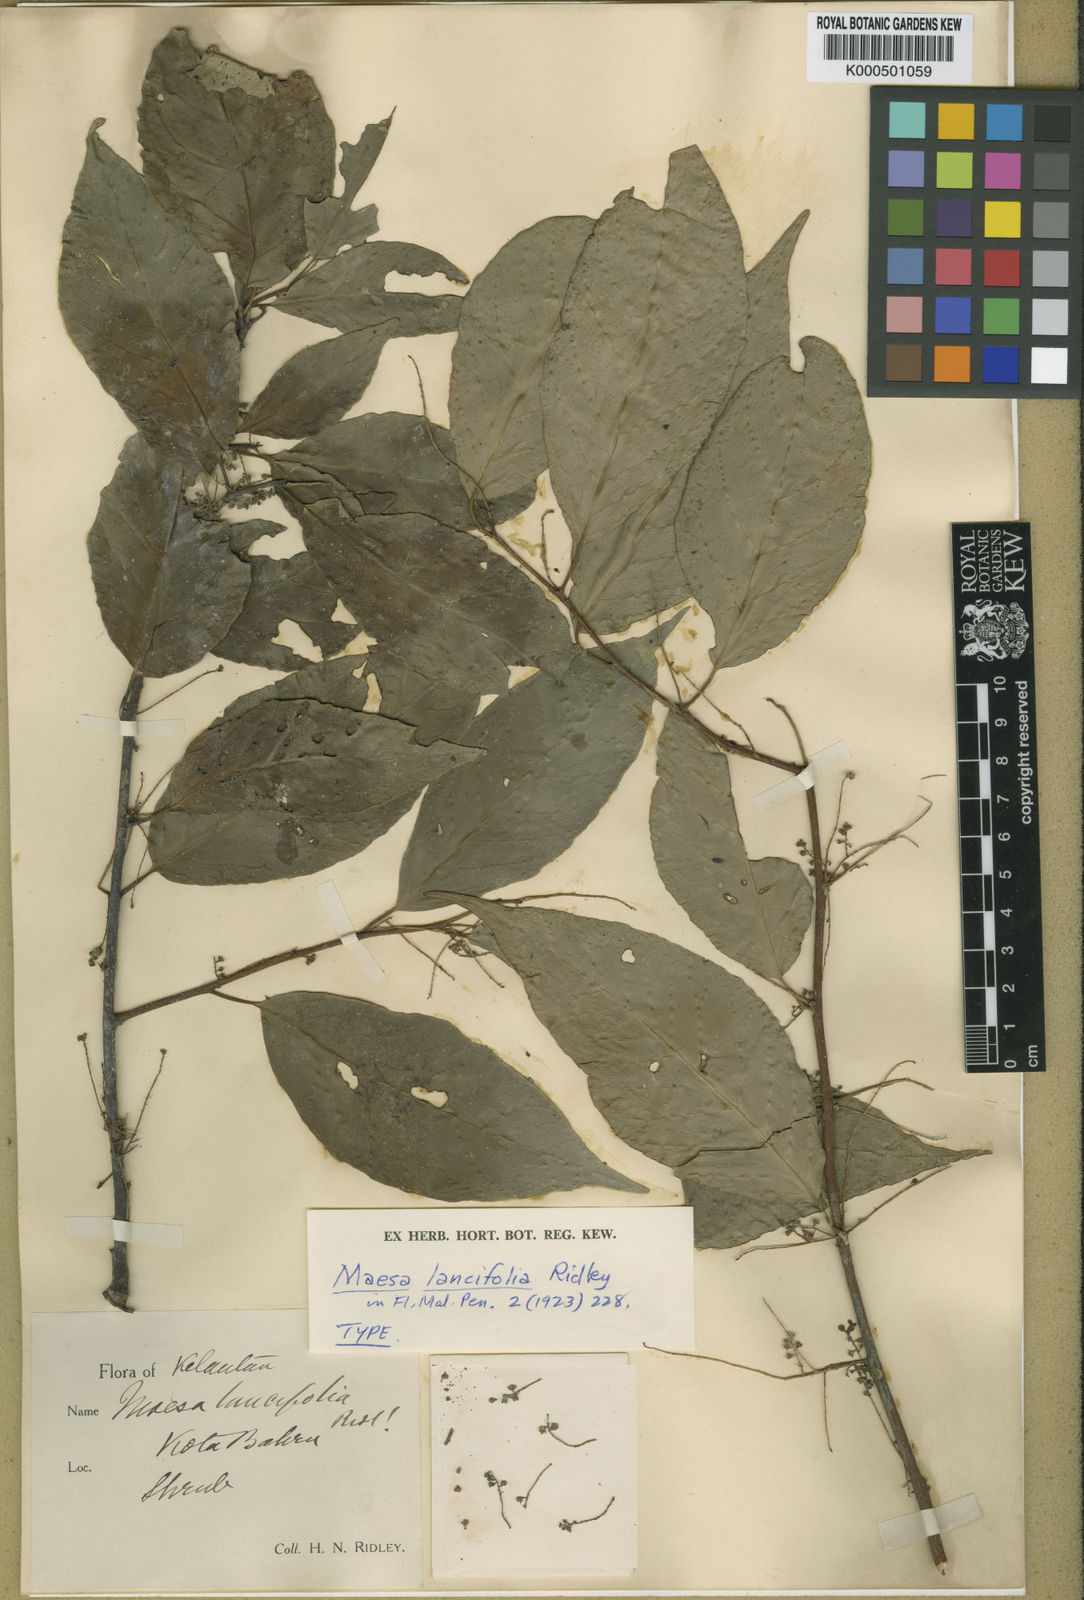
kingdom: Plantae
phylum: Tracheophyta
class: Magnoliopsida
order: Ericales
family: Primulaceae
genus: Maesa
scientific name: Maesa pahangiana
